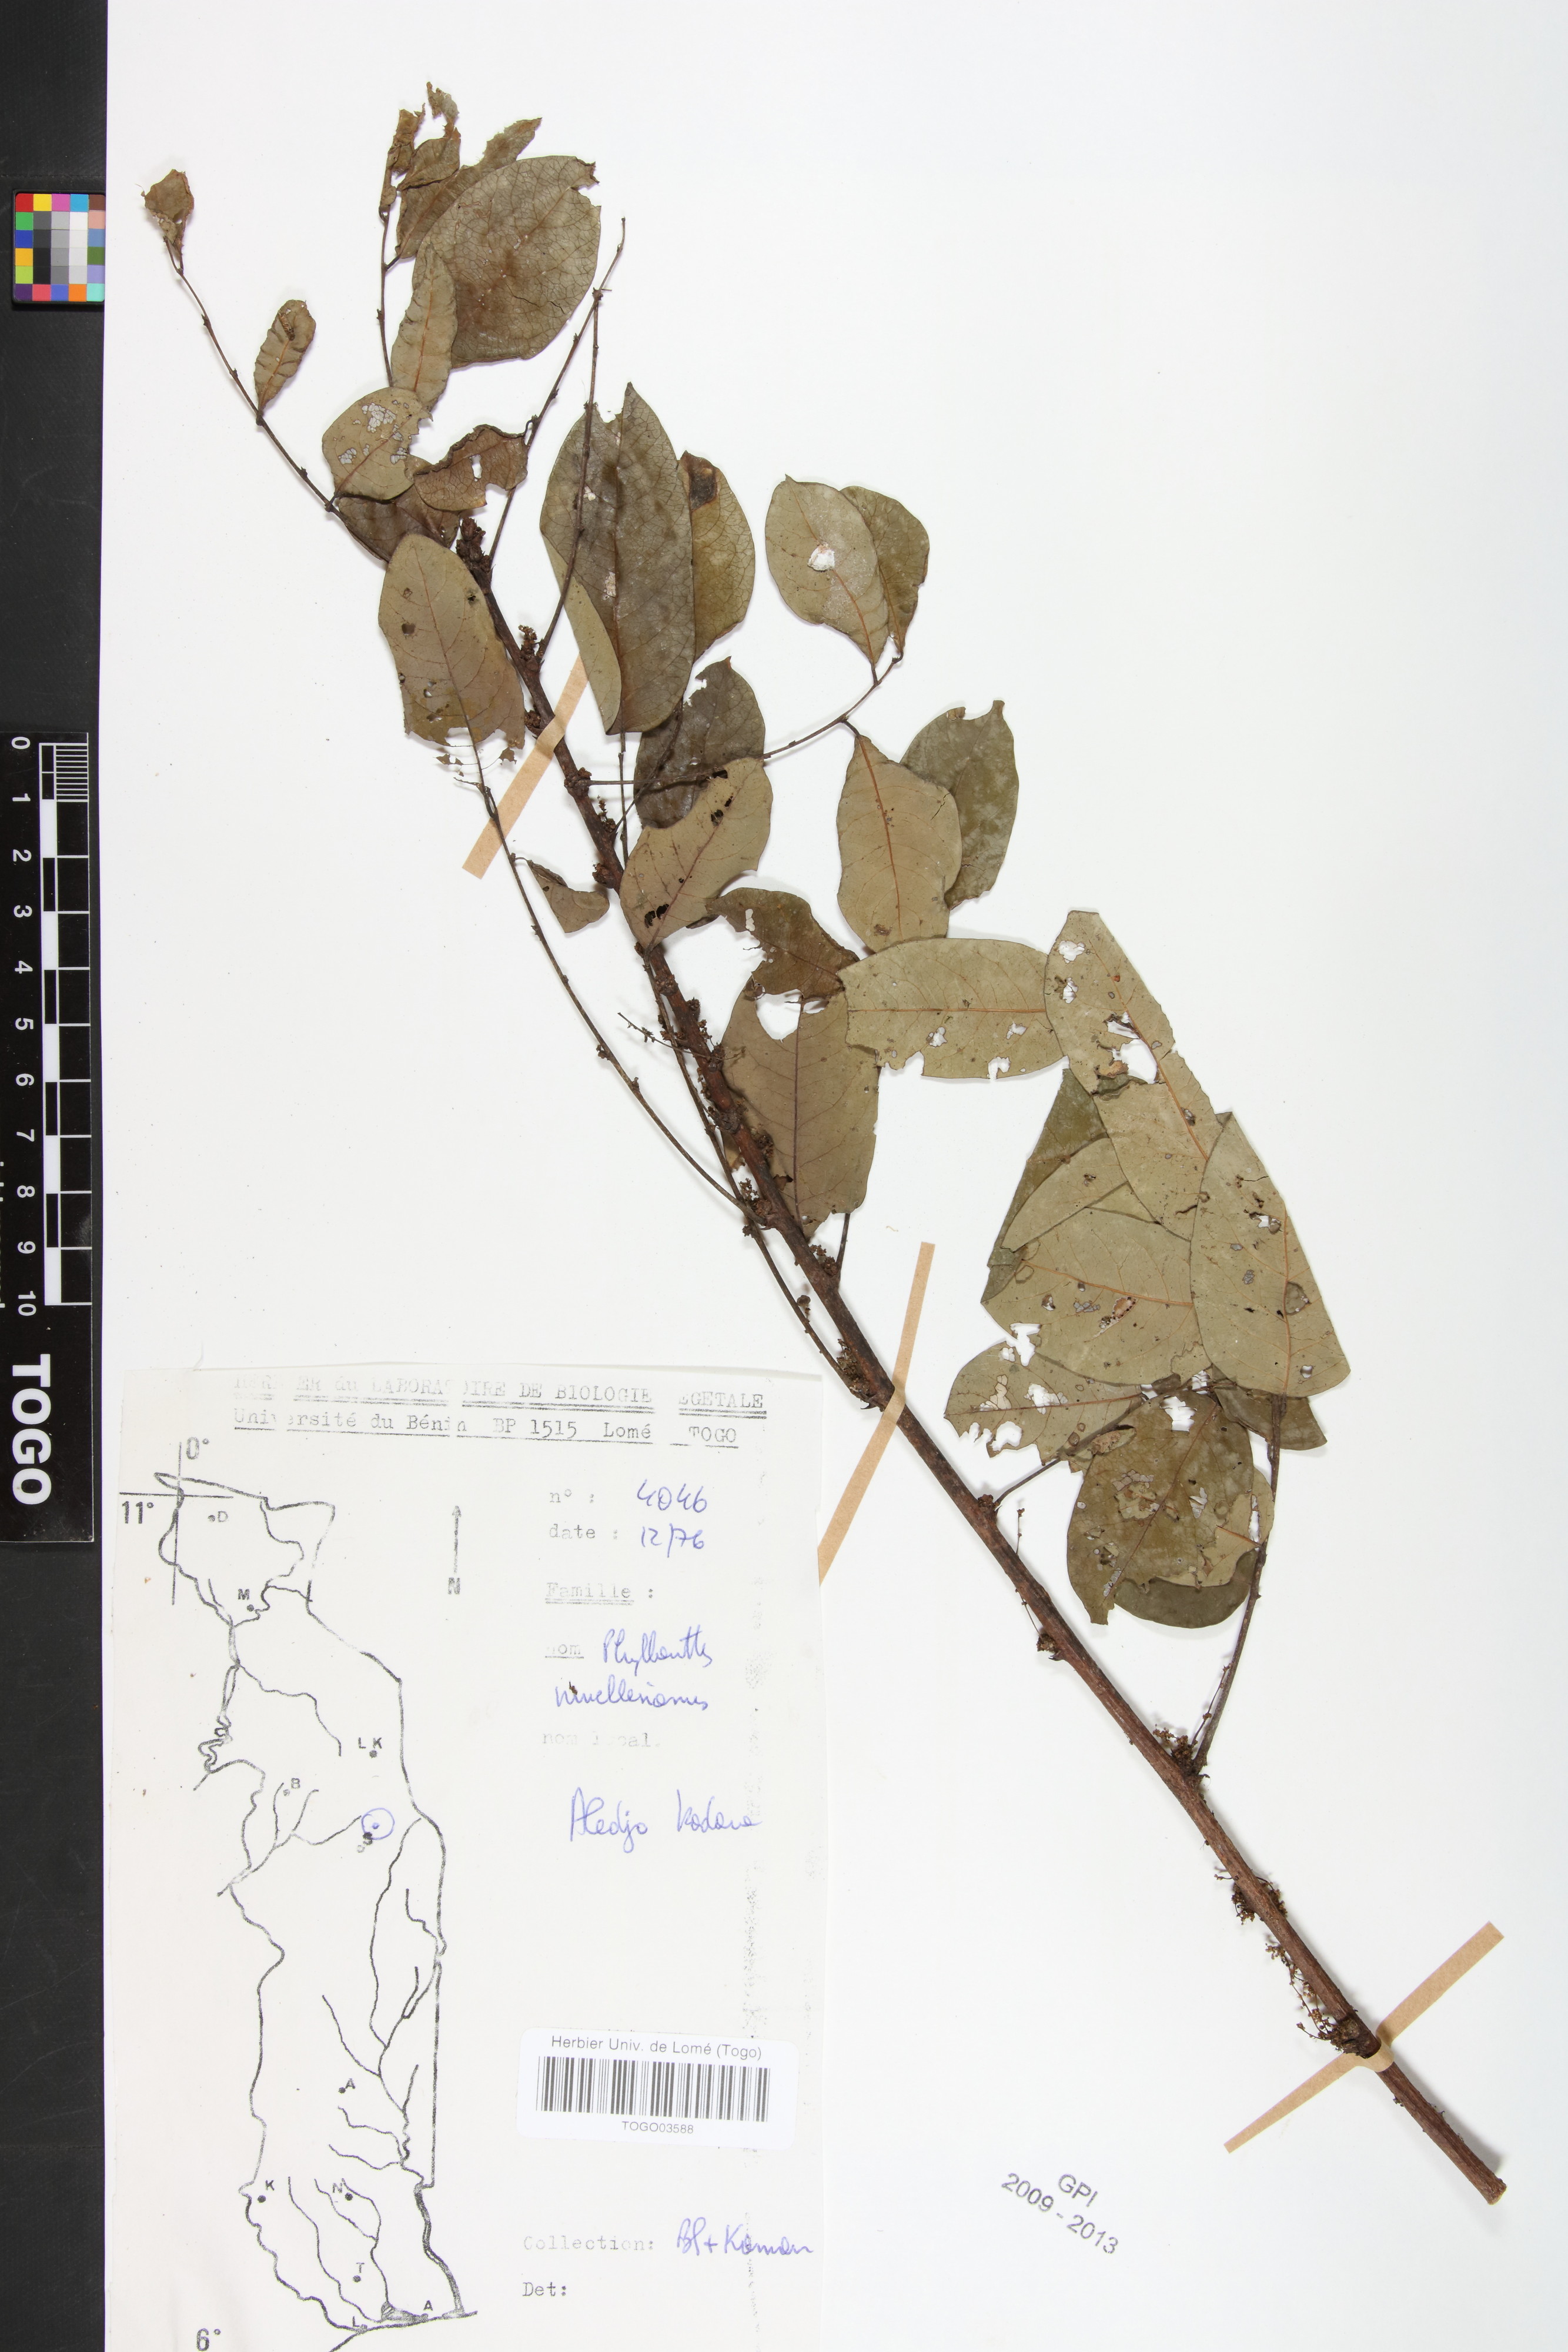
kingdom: Plantae
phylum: Tracheophyta
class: Magnoliopsida
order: Malpighiales
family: Phyllanthaceae
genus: Phyllanthus
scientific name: Phyllanthus muellerianus
